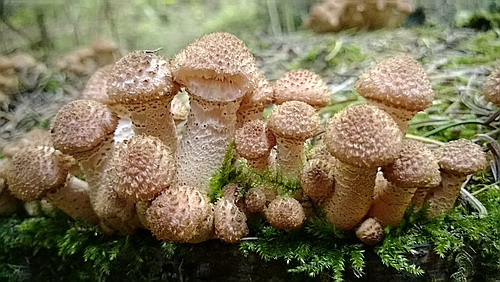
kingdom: Fungi
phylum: Basidiomycota
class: Agaricomycetes
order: Agaricales
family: Physalacriaceae
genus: Armillaria
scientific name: Armillaria ostoyae
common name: mørk honningsvamp
